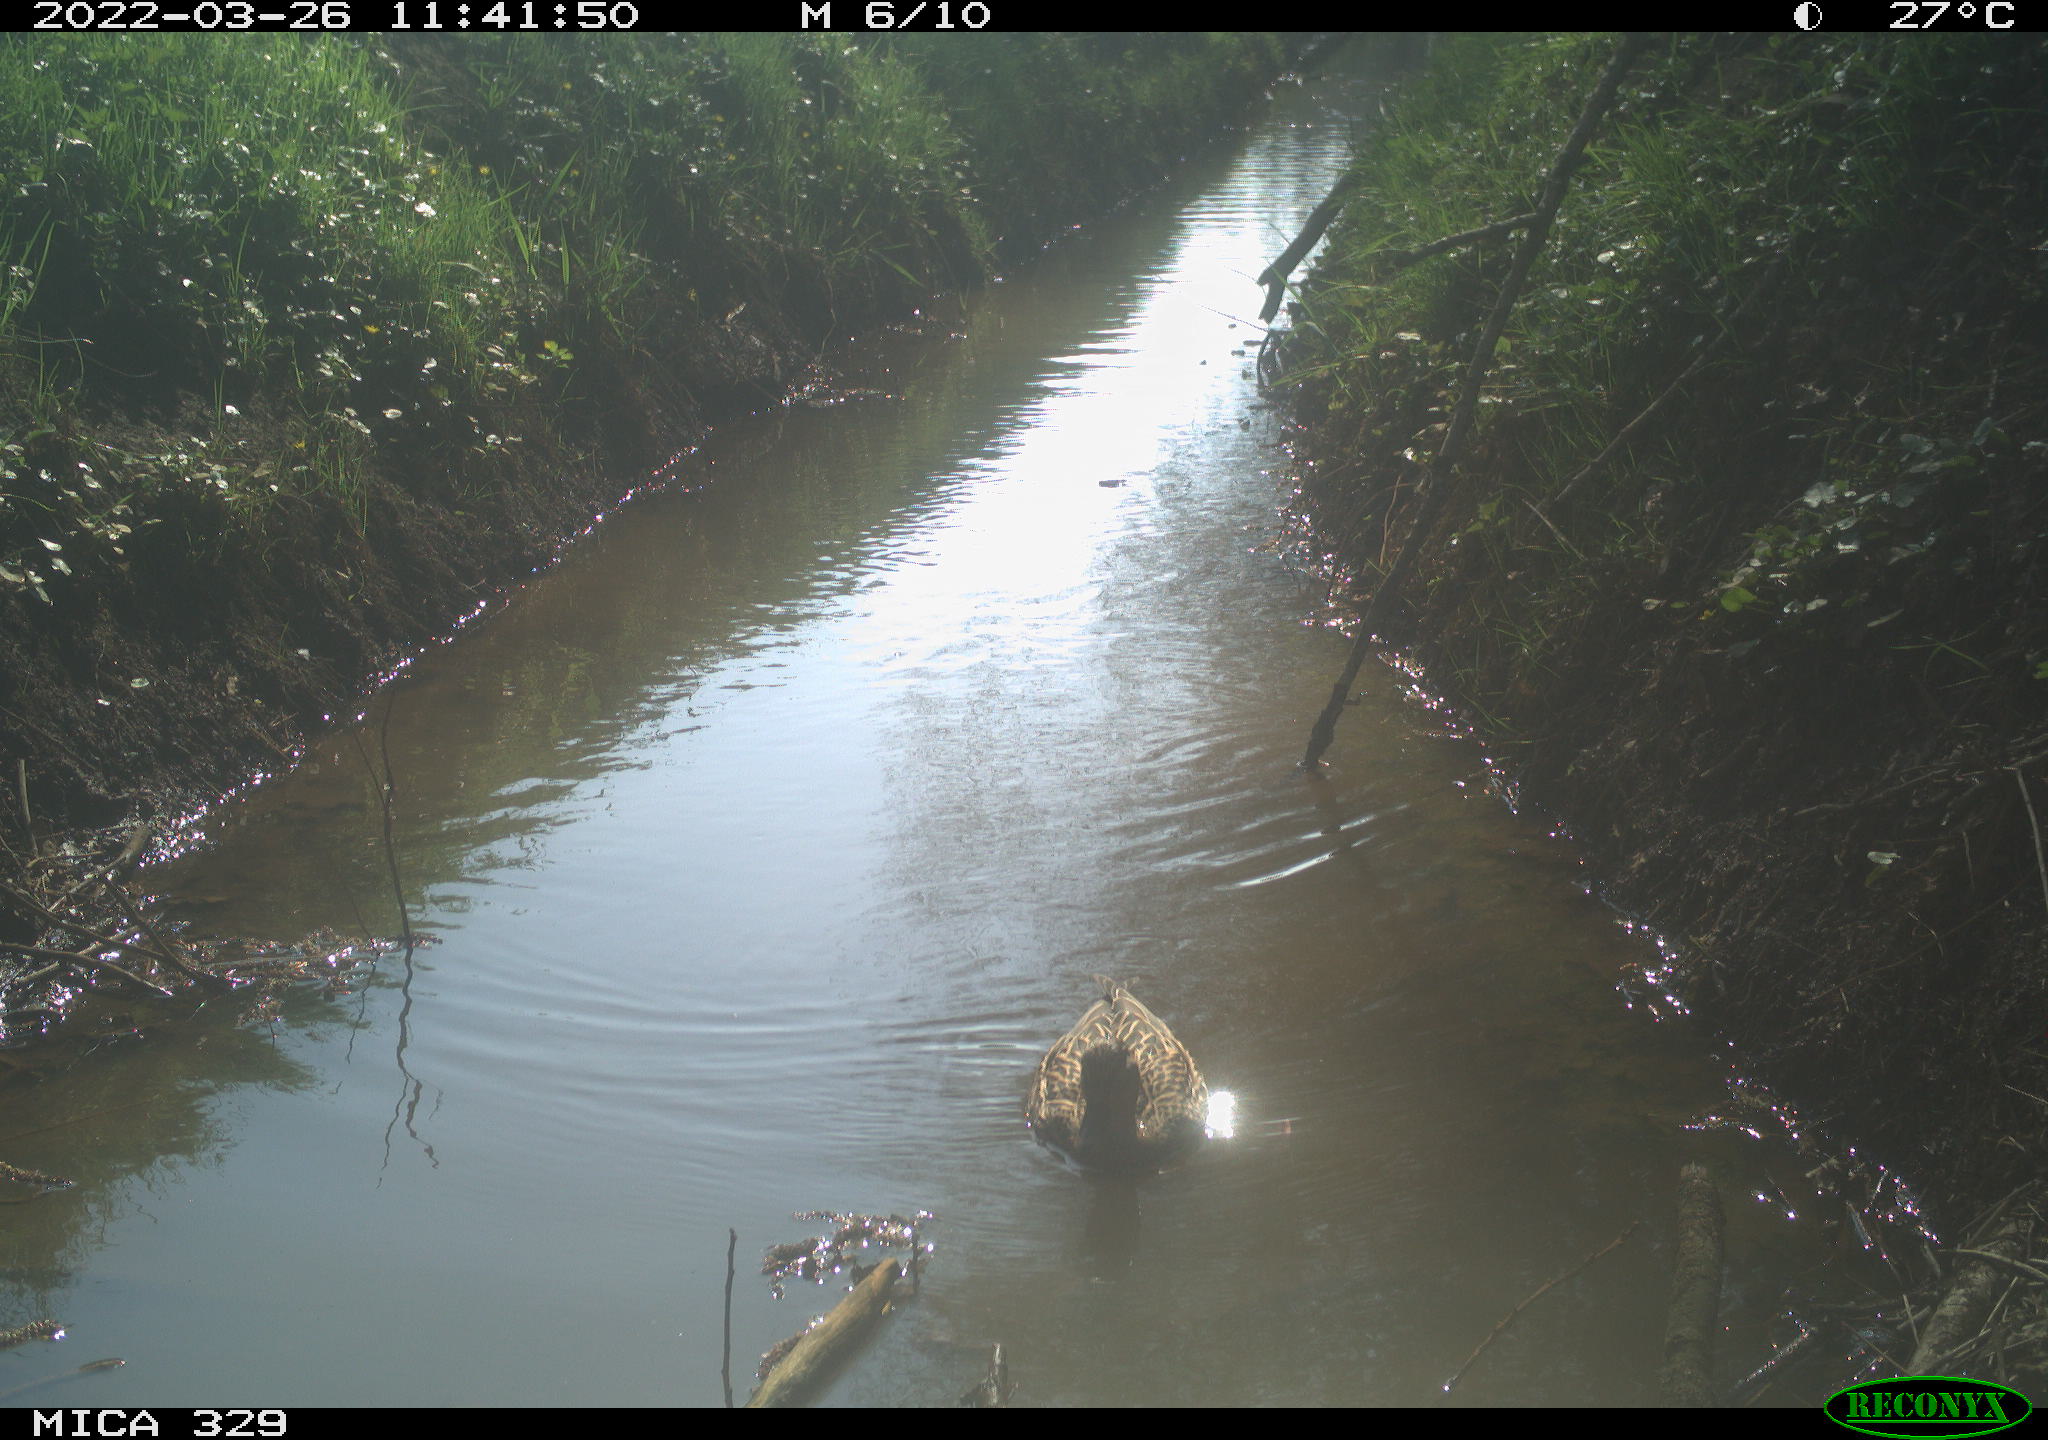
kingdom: Animalia
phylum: Chordata
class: Aves
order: Anseriformes
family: Anatidae
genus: Anas
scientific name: Anas platyrhynchos
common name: Mallard
